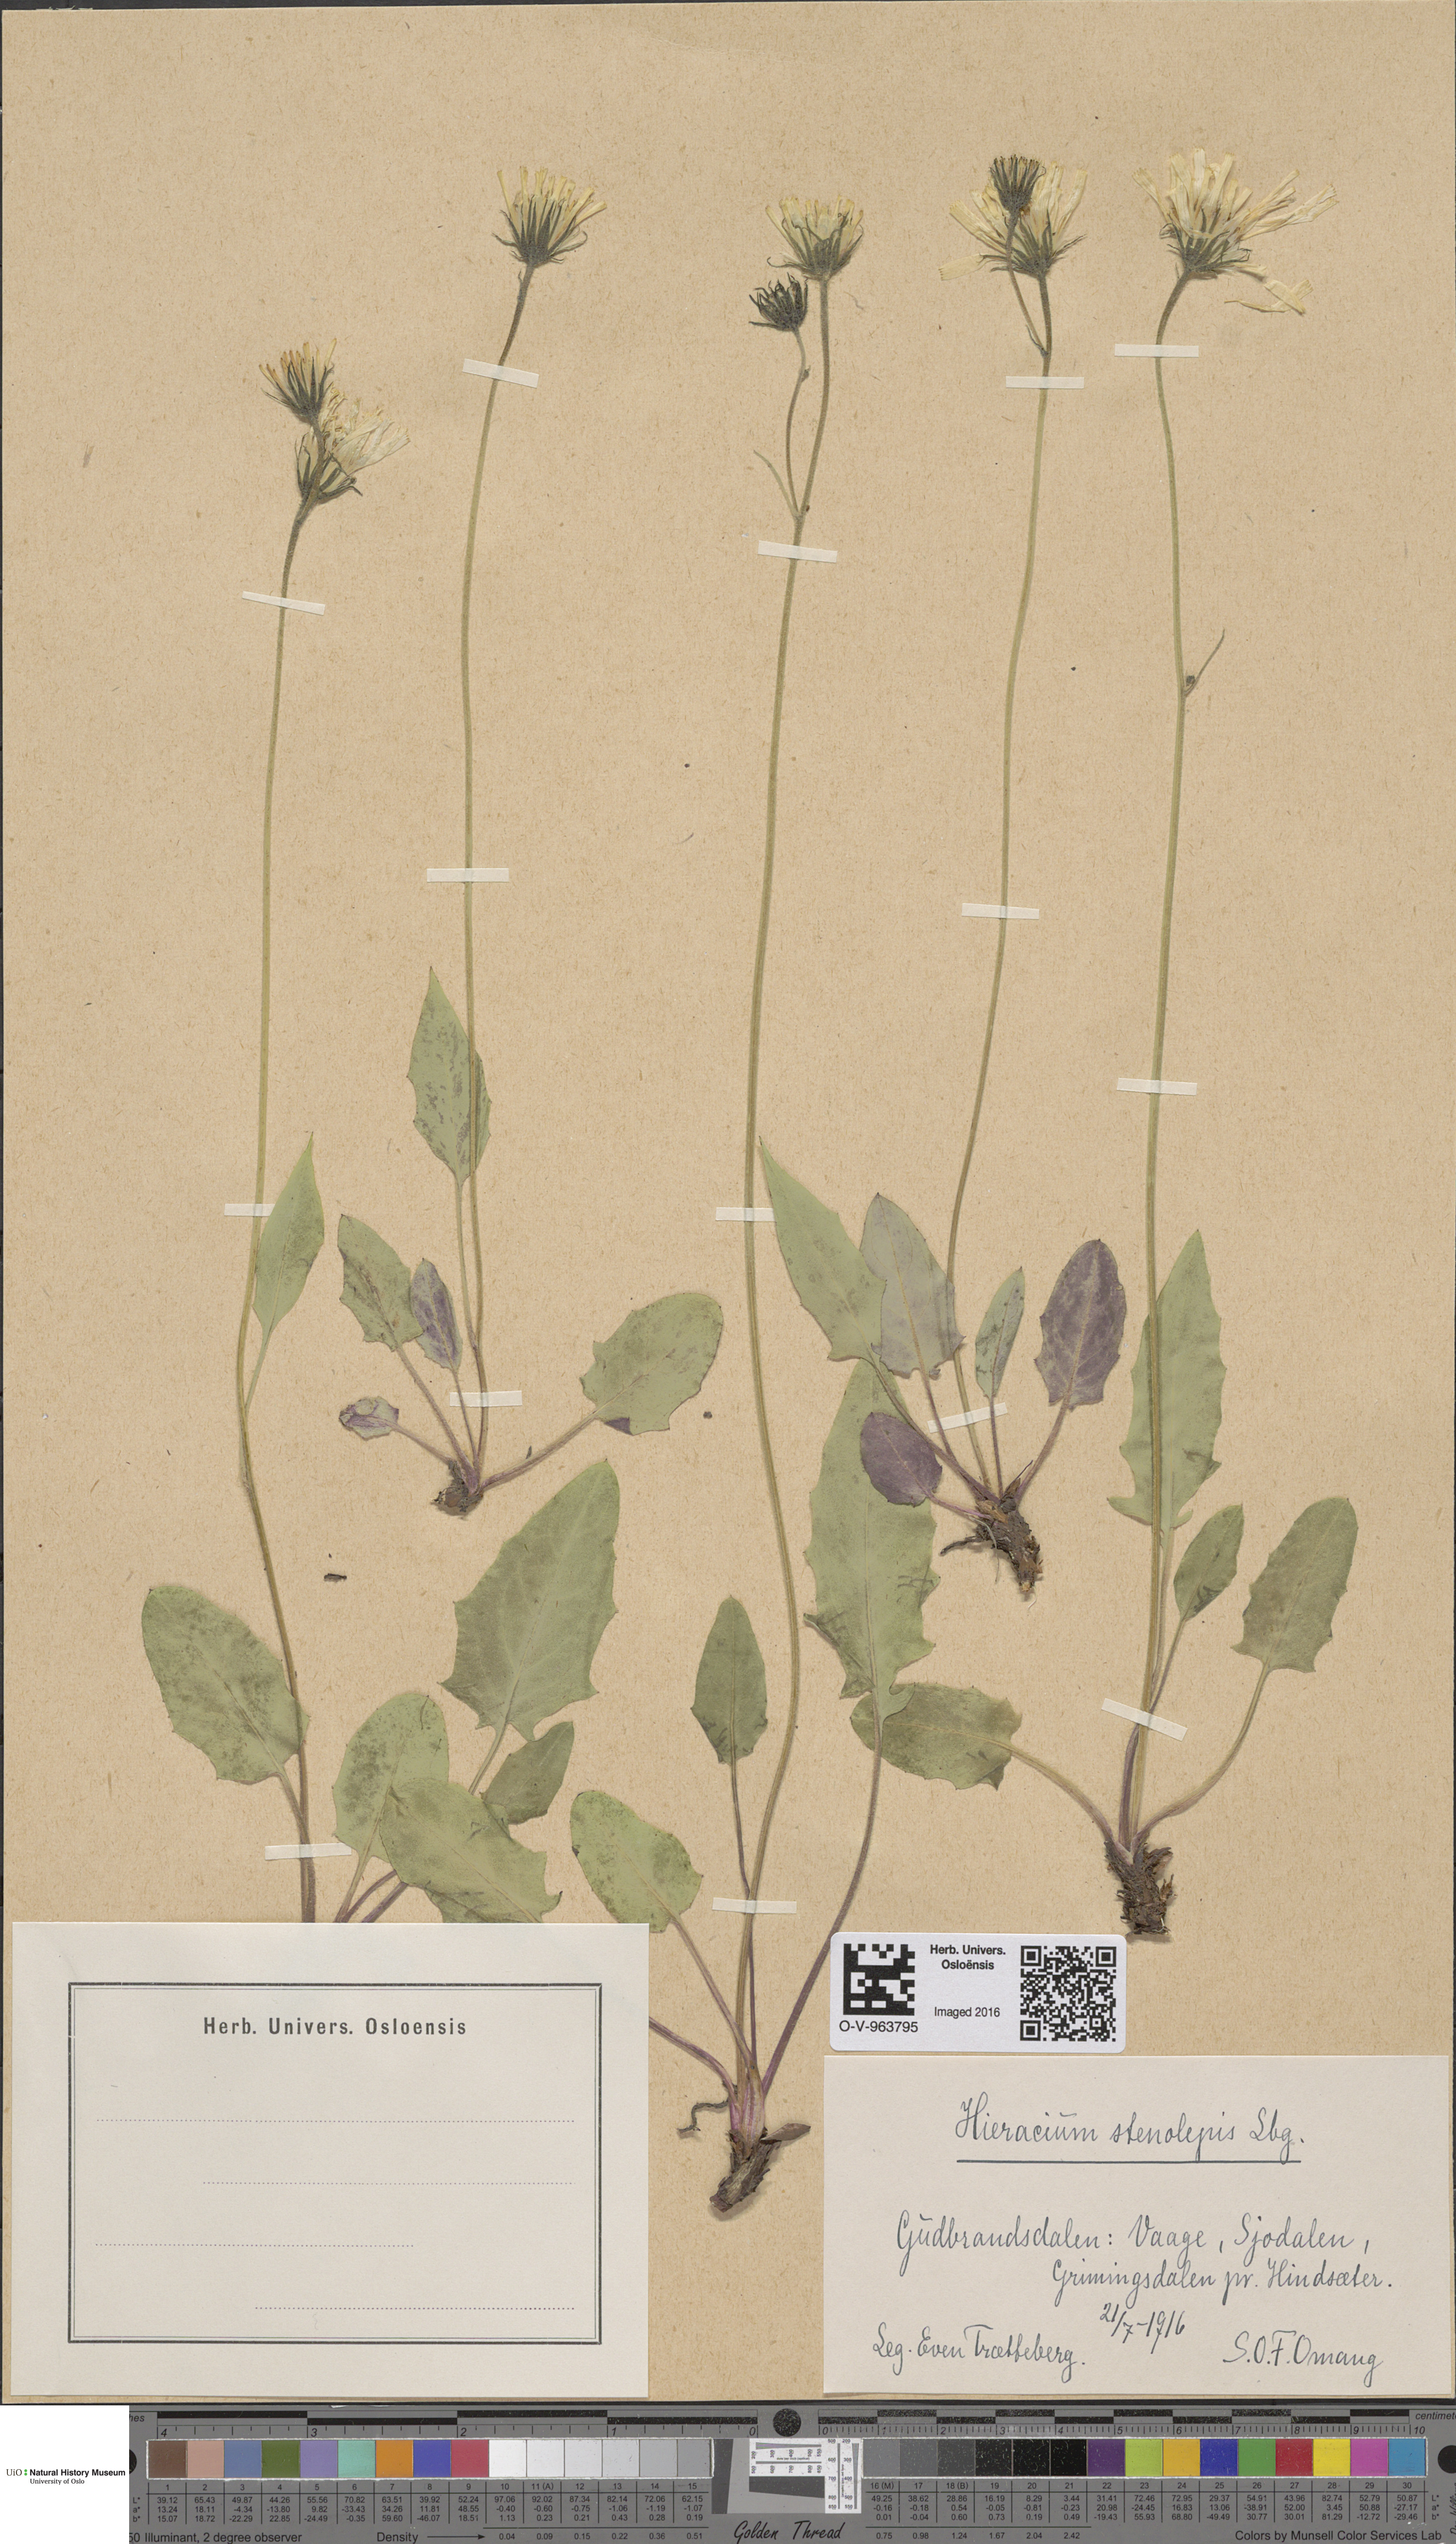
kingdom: Plantae
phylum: Tracheophyta
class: Magnoliopsida
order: Asterales
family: Asteraceae
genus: Hieracium
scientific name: Hieracium bifidum
